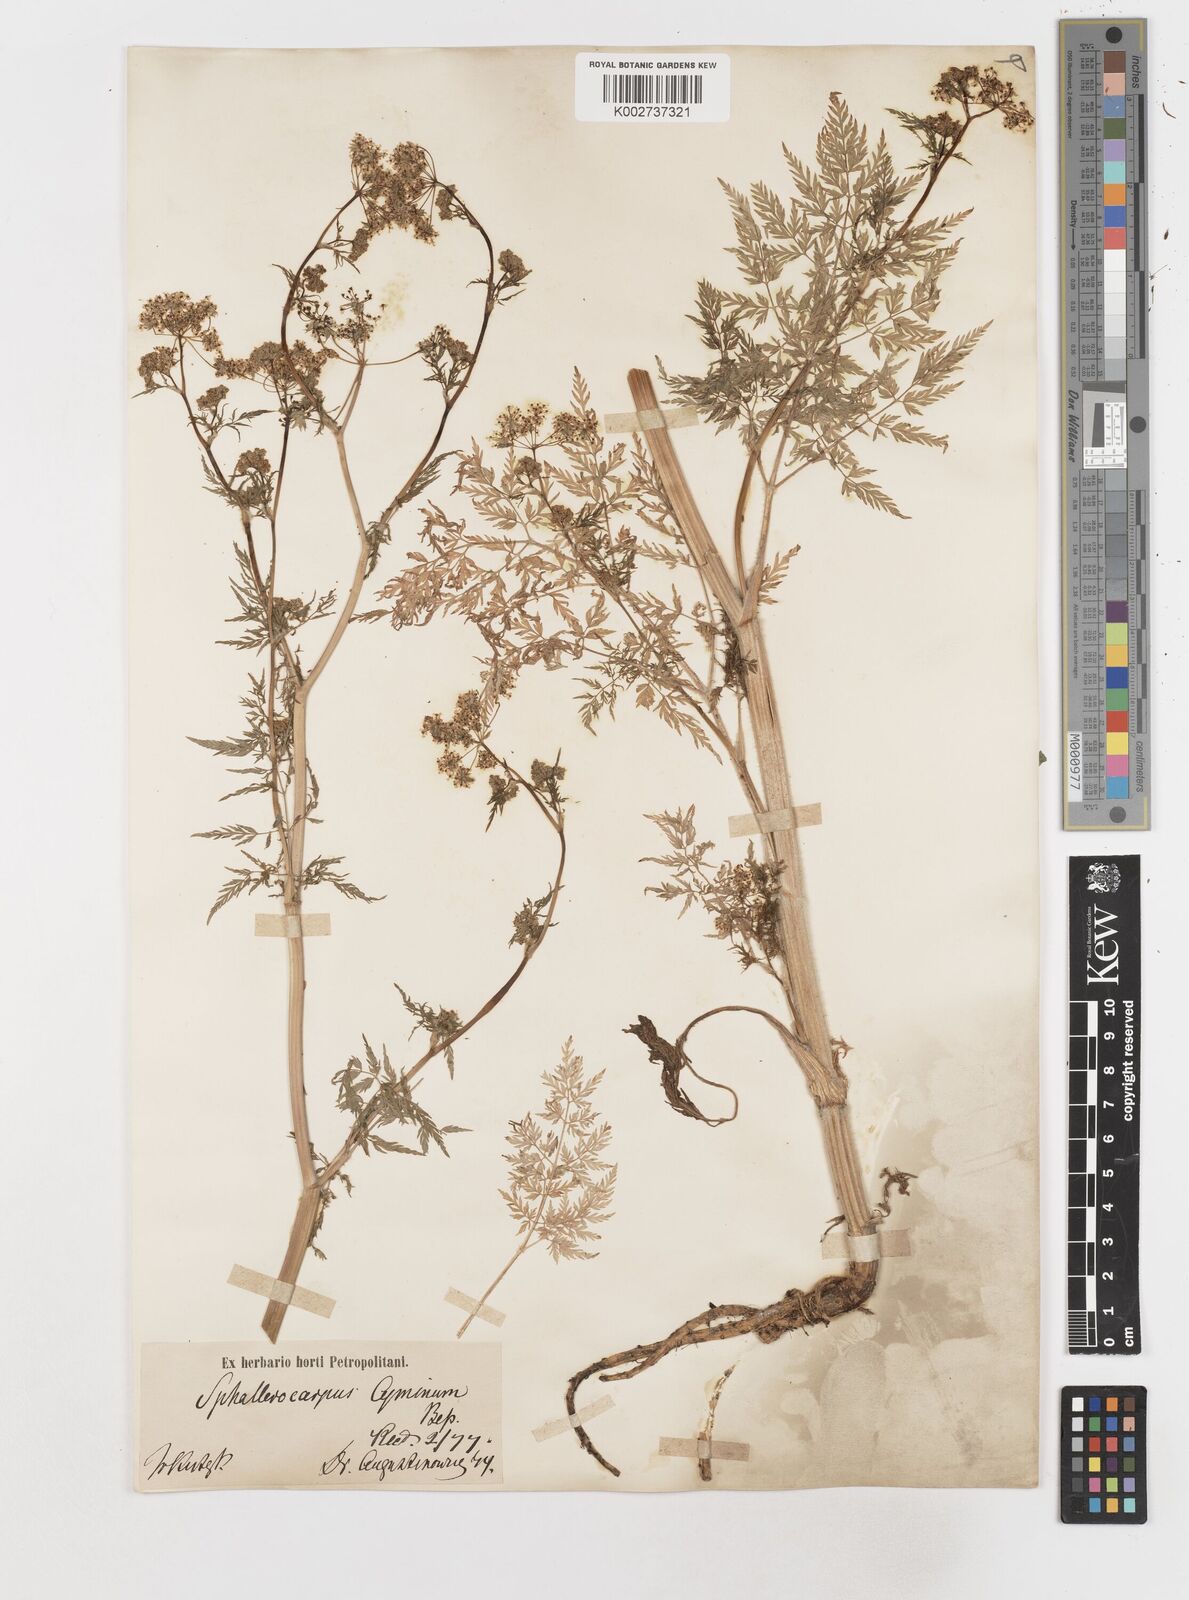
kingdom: Plantae
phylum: Tracheophyta
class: Magnoliopsida
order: Apiales
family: Apiaceae
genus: Sphallerocarpus
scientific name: Sphallerocarpus gracilis
